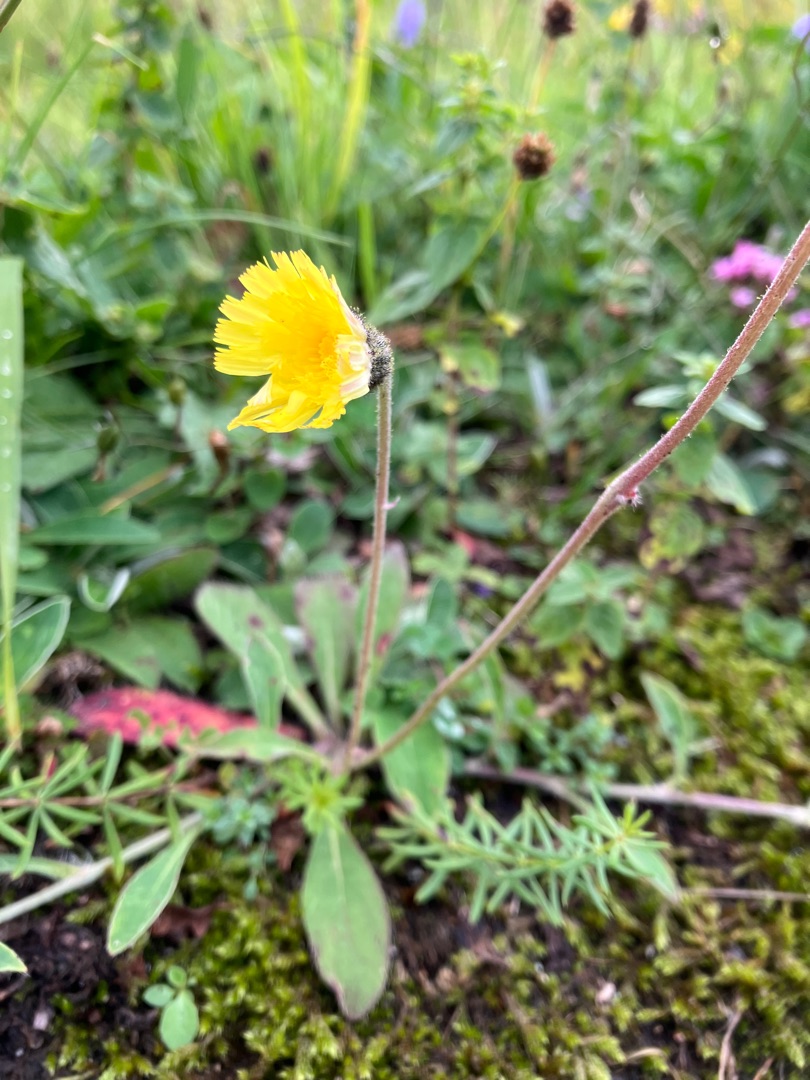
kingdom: Plantae
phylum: Tracheophyta
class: Magnoliopsida
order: Asterales
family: Asteraceae
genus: Pilosella
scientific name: Pilosella officinarum
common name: Håret høgeurt
